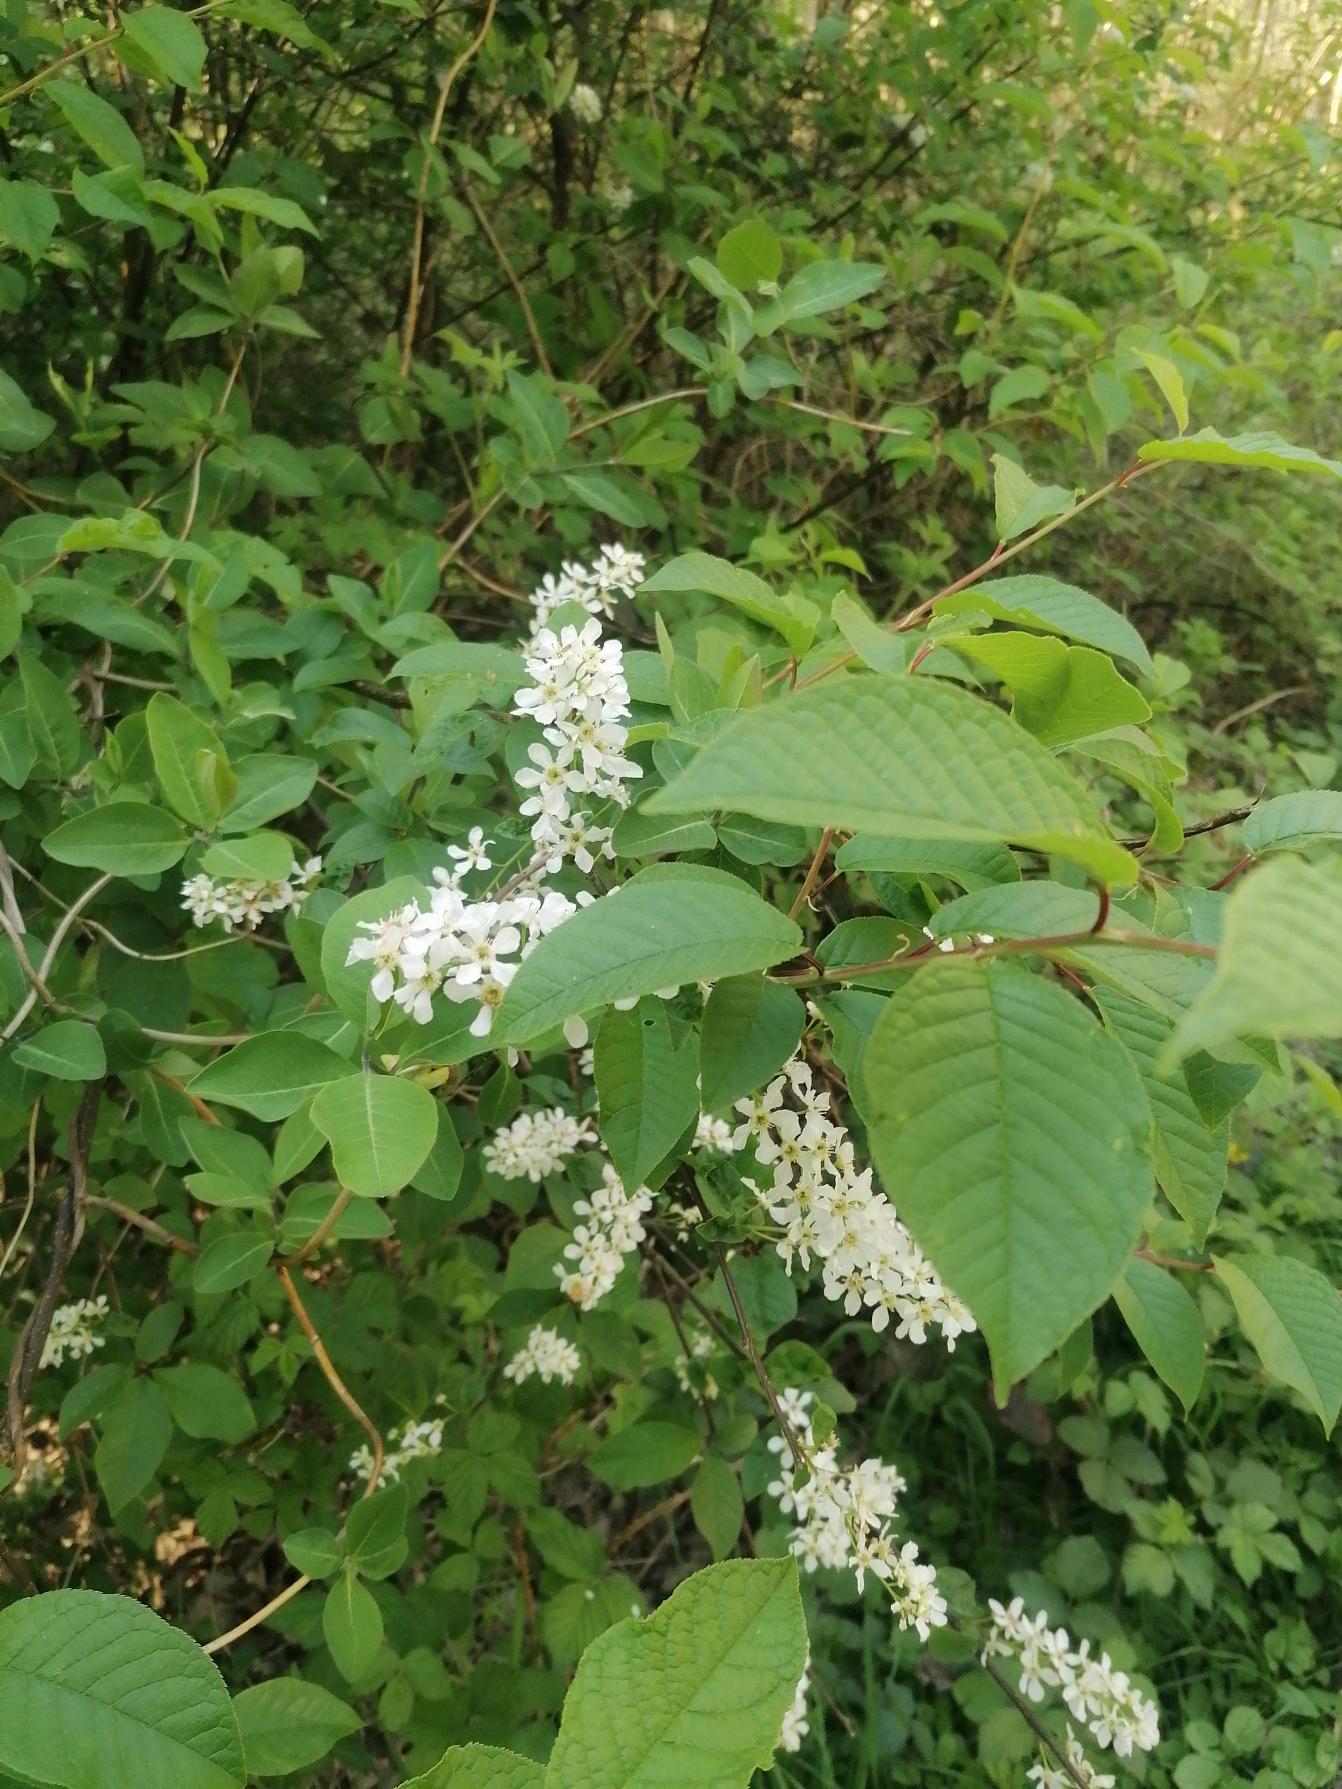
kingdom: Plantae
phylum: Tracheophyta
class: Magnoliopsida
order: Rosales
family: Rosaceae
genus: Prunus
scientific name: Prunus padus
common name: Almindelig hæg
